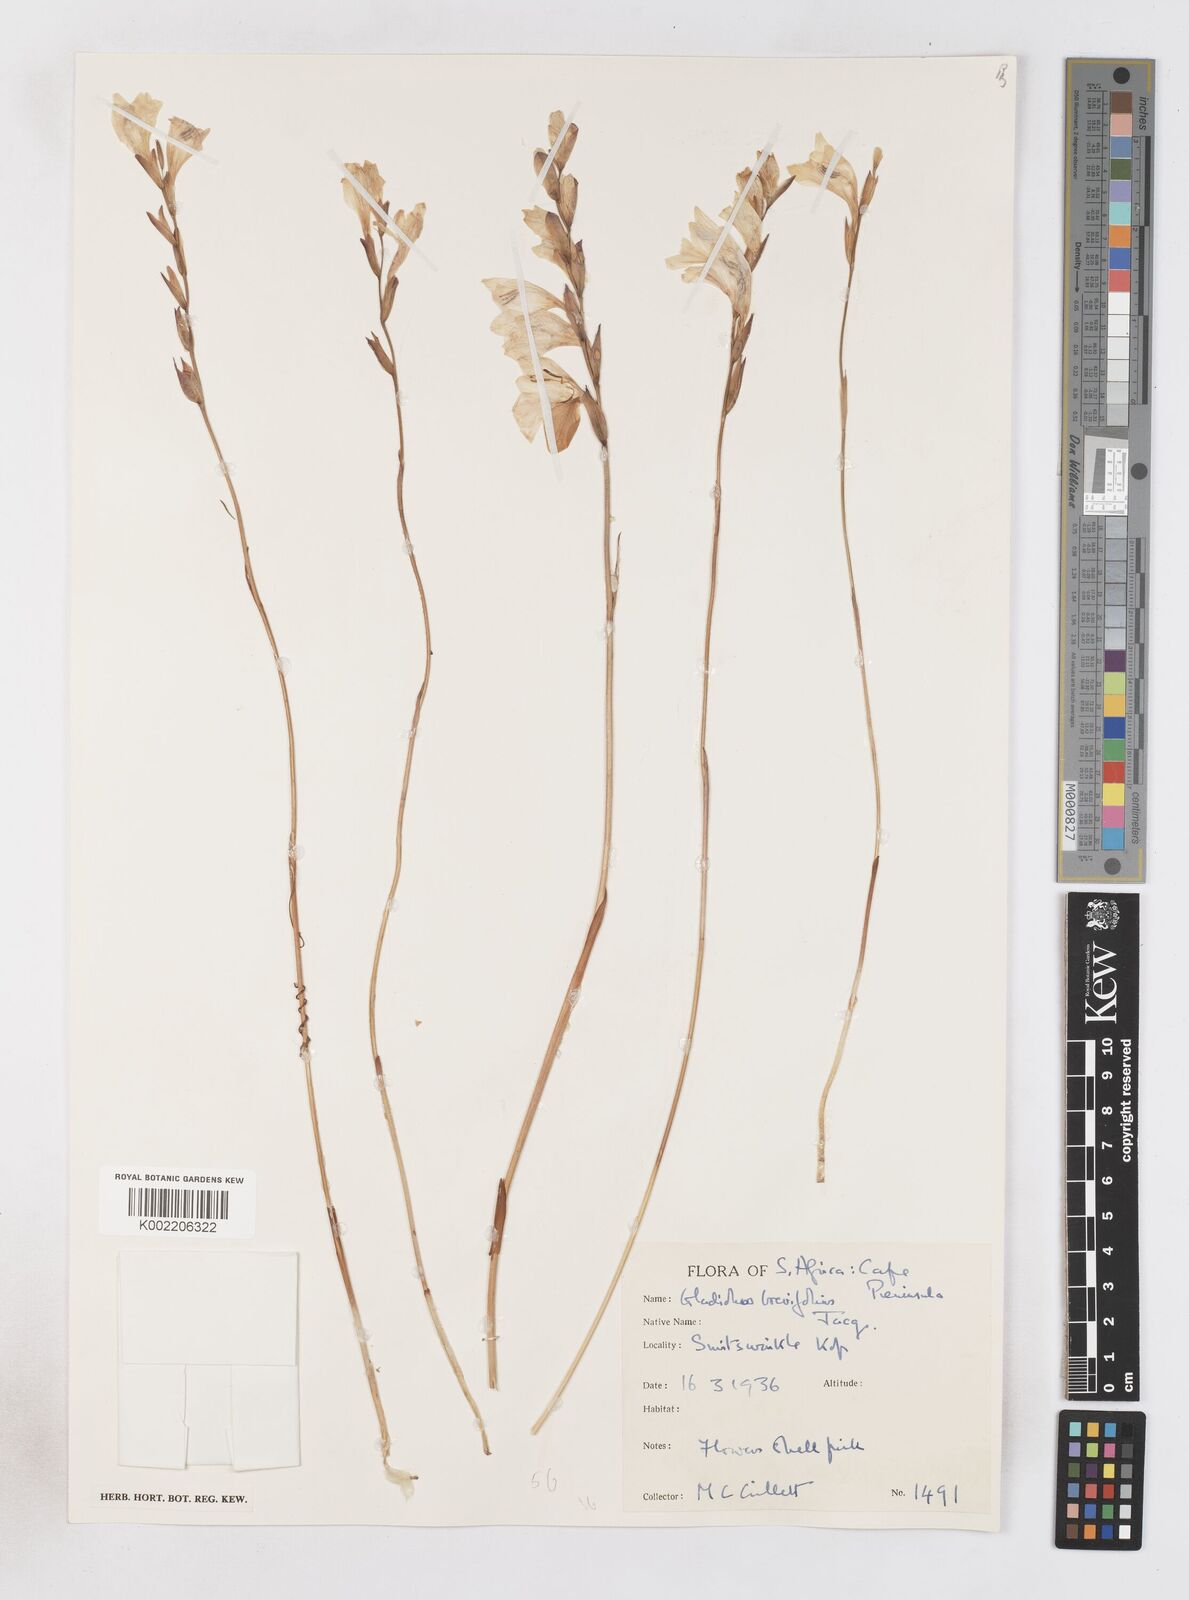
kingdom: Plantae
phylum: Tracheophyta
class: Liliopsida
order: Asparagales
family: Iridaceae
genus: Gladiolus
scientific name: Gladiolus brevifolius
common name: March pypie
